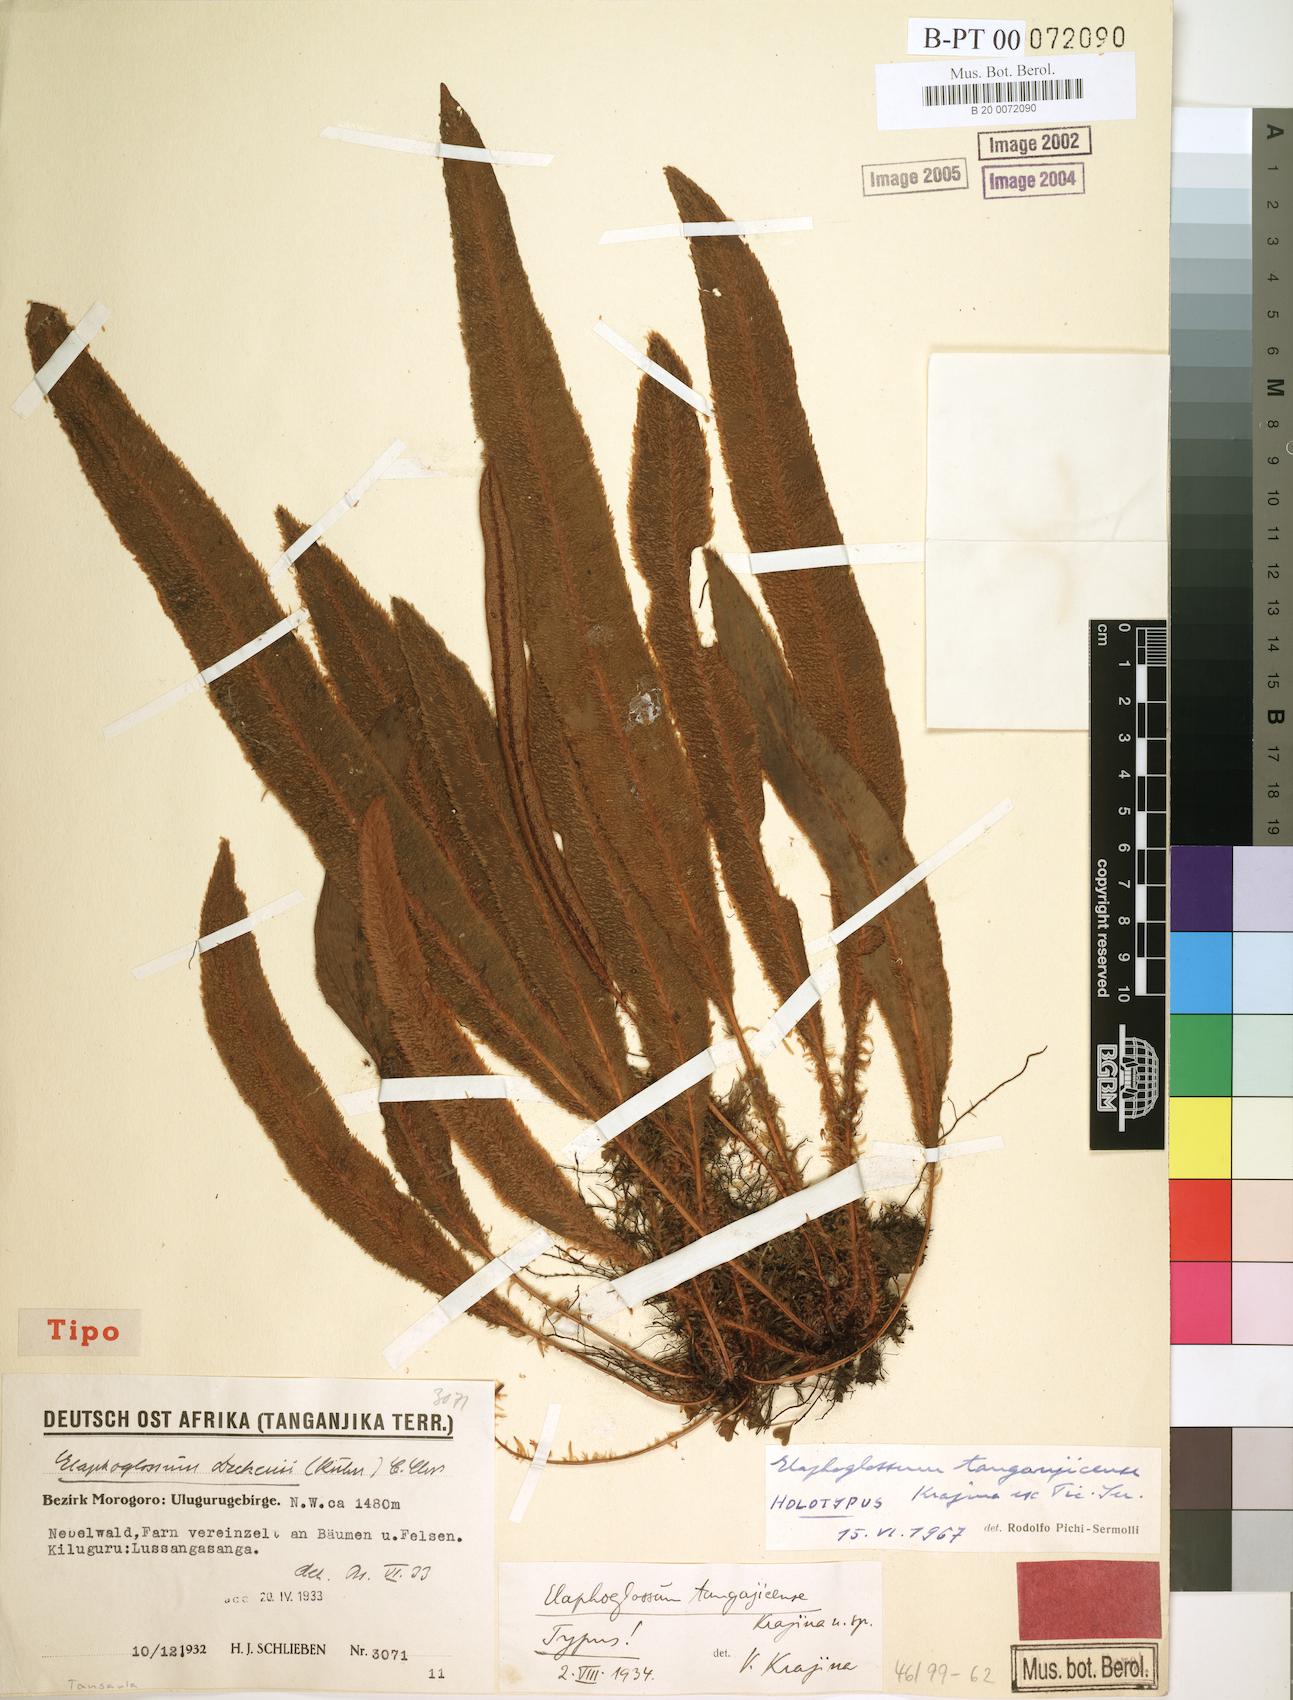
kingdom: Plantae
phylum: Tracheophyta
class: Polypodiopsida
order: Polypodiales
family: Dryopteridaceae
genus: Elaphoglossum
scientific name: Elaphoglossum deckenii
